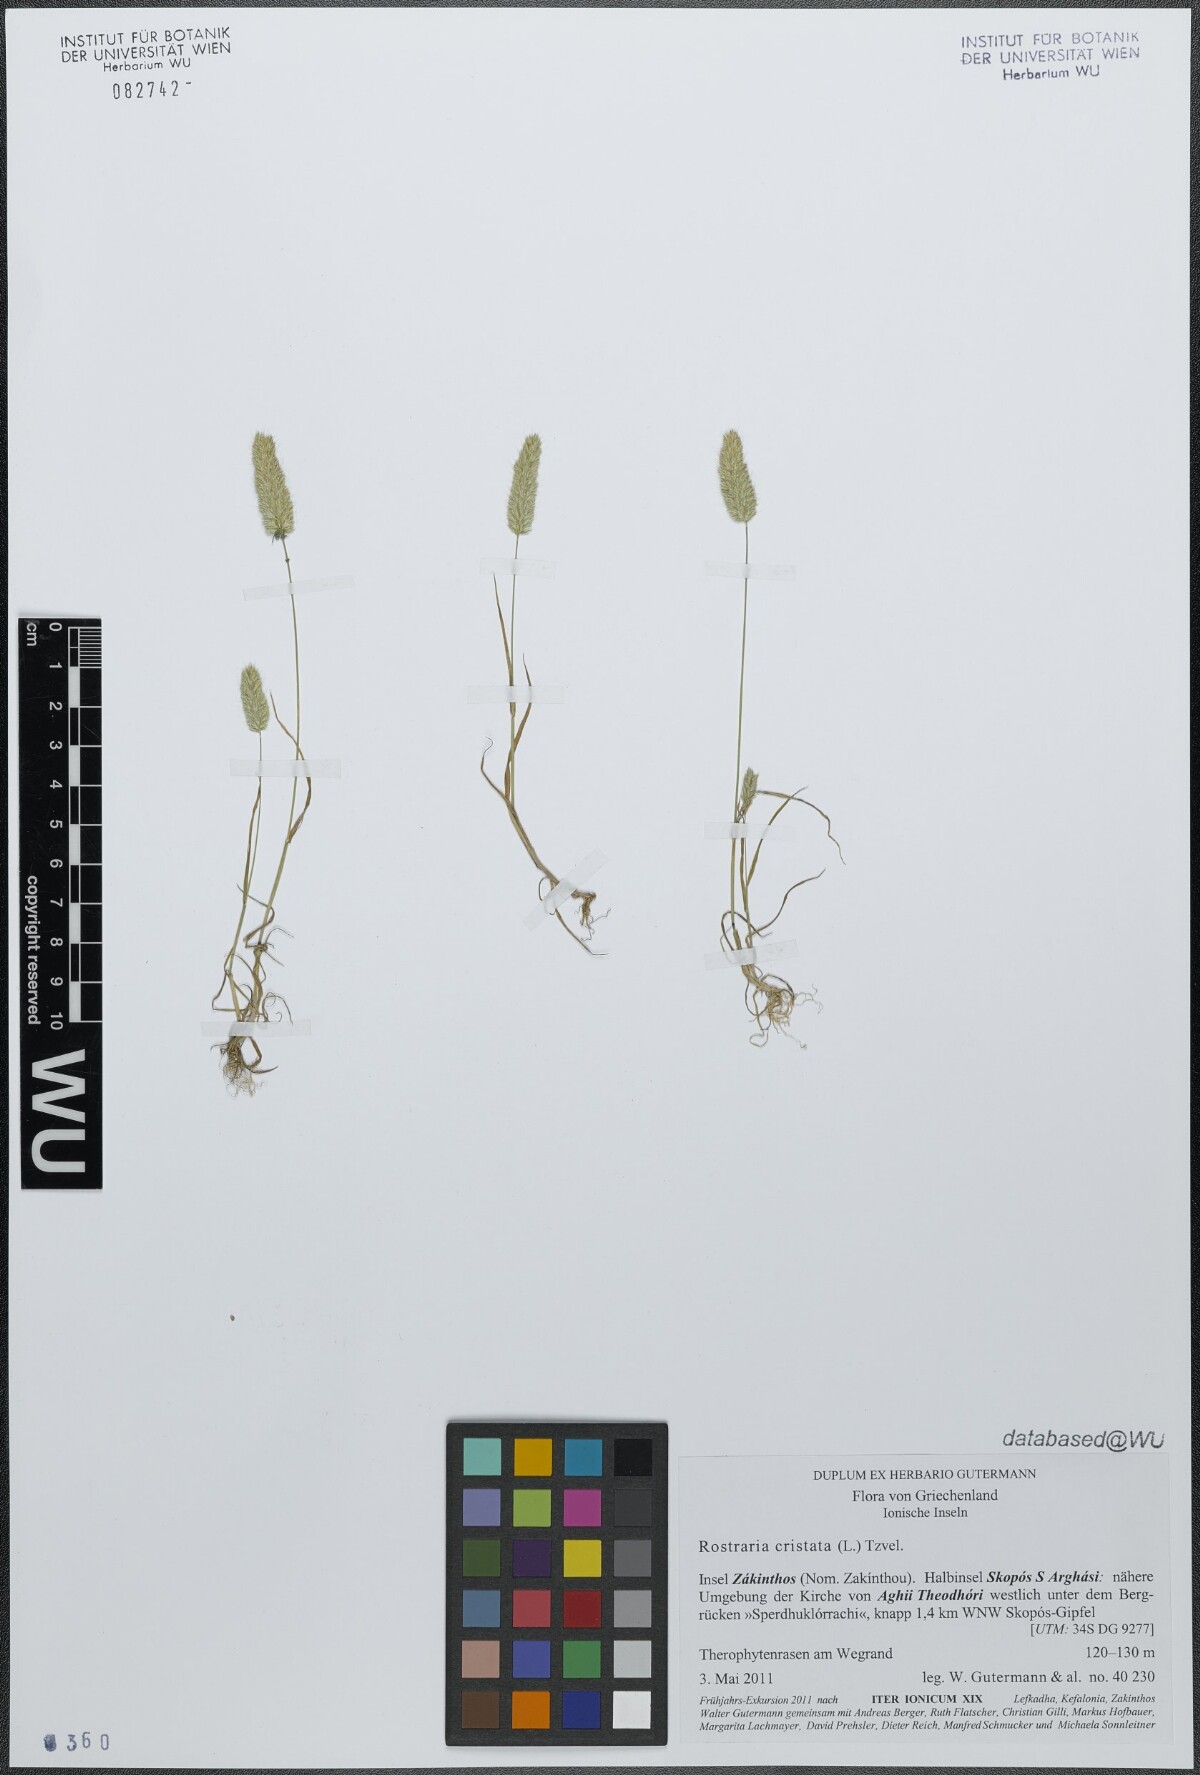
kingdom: Plantae
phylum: Tracheophyta
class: Liliopsida
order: Poales
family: Poaceae
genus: Rostraria
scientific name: Rostraria cristata
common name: Mediterranean hair-grass
